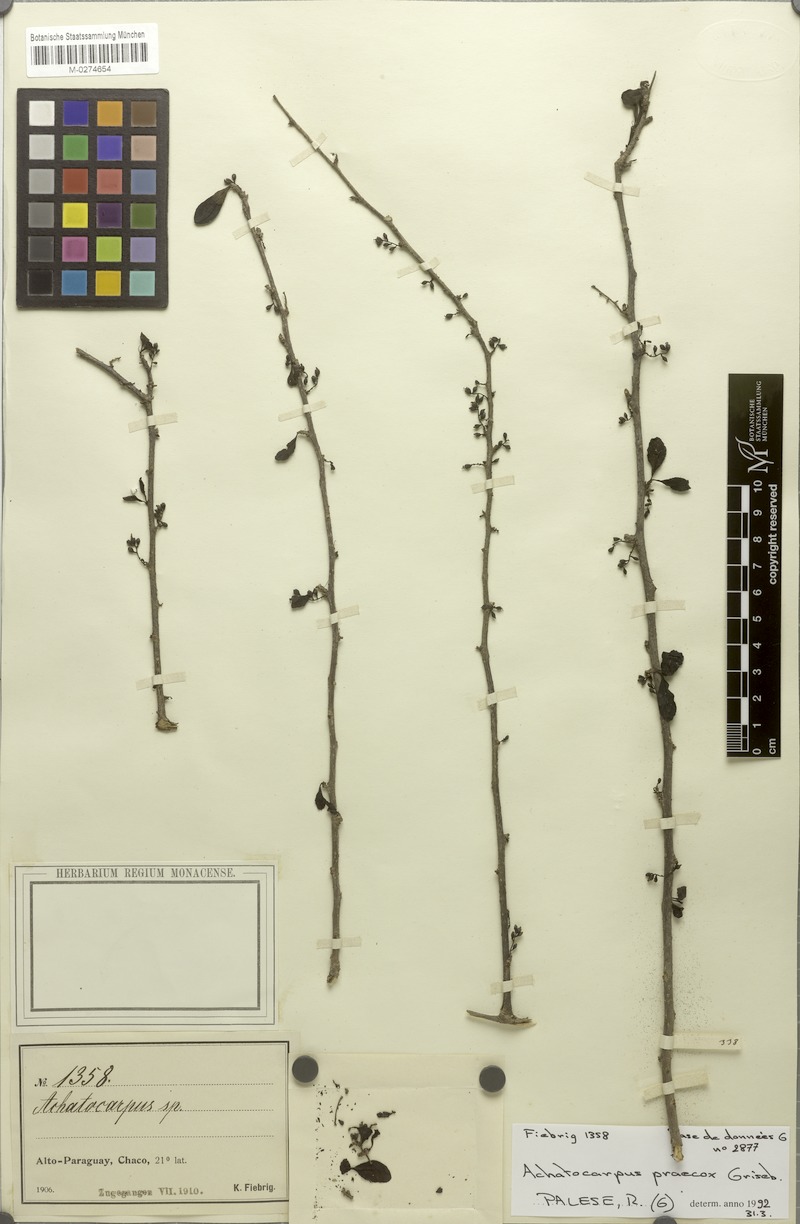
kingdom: Plantae
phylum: Tracheophyta
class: Magnoliopsida
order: Caryophyllales
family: Achatocarpaceae
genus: Achatocarpus
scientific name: Achatocarpus microcarpus
